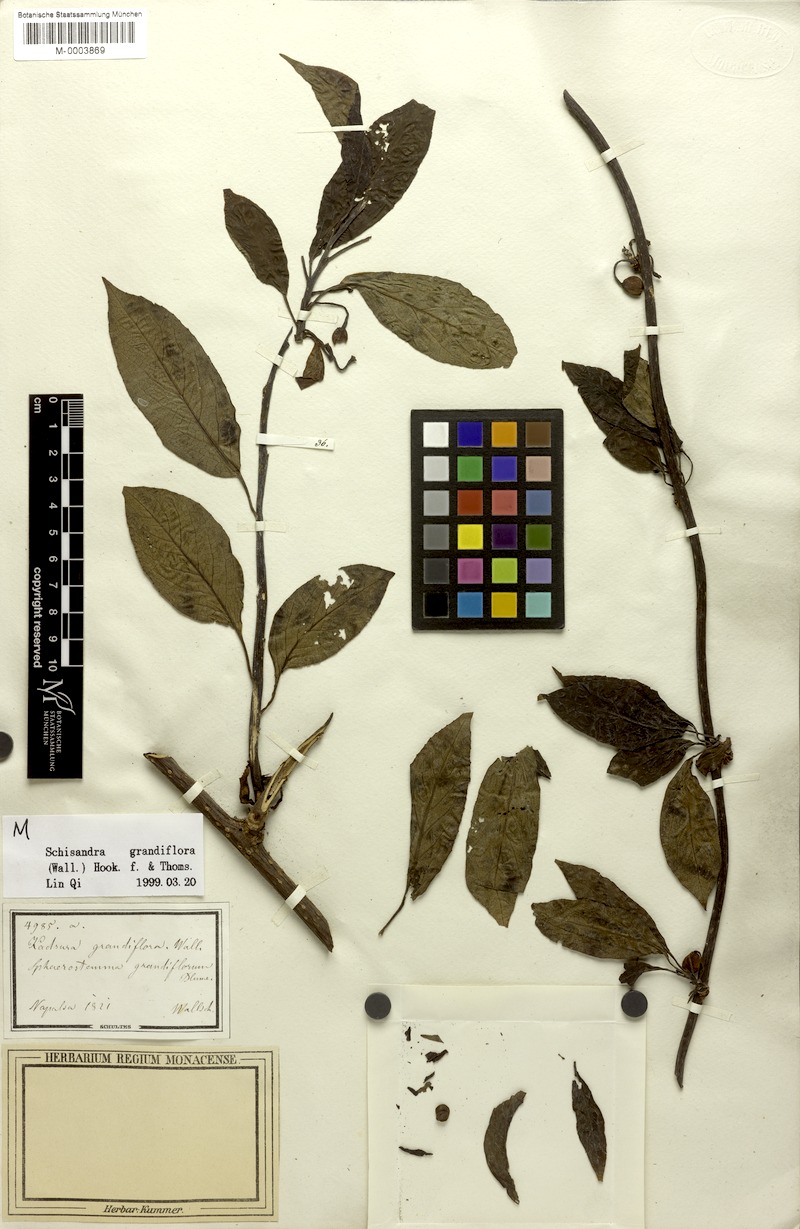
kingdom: Plantae
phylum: Tracheophyta
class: Magnoliopsida
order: Austrobaileyales
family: Schisandraceae
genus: Schisandra
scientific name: Schisandra grandiflora
